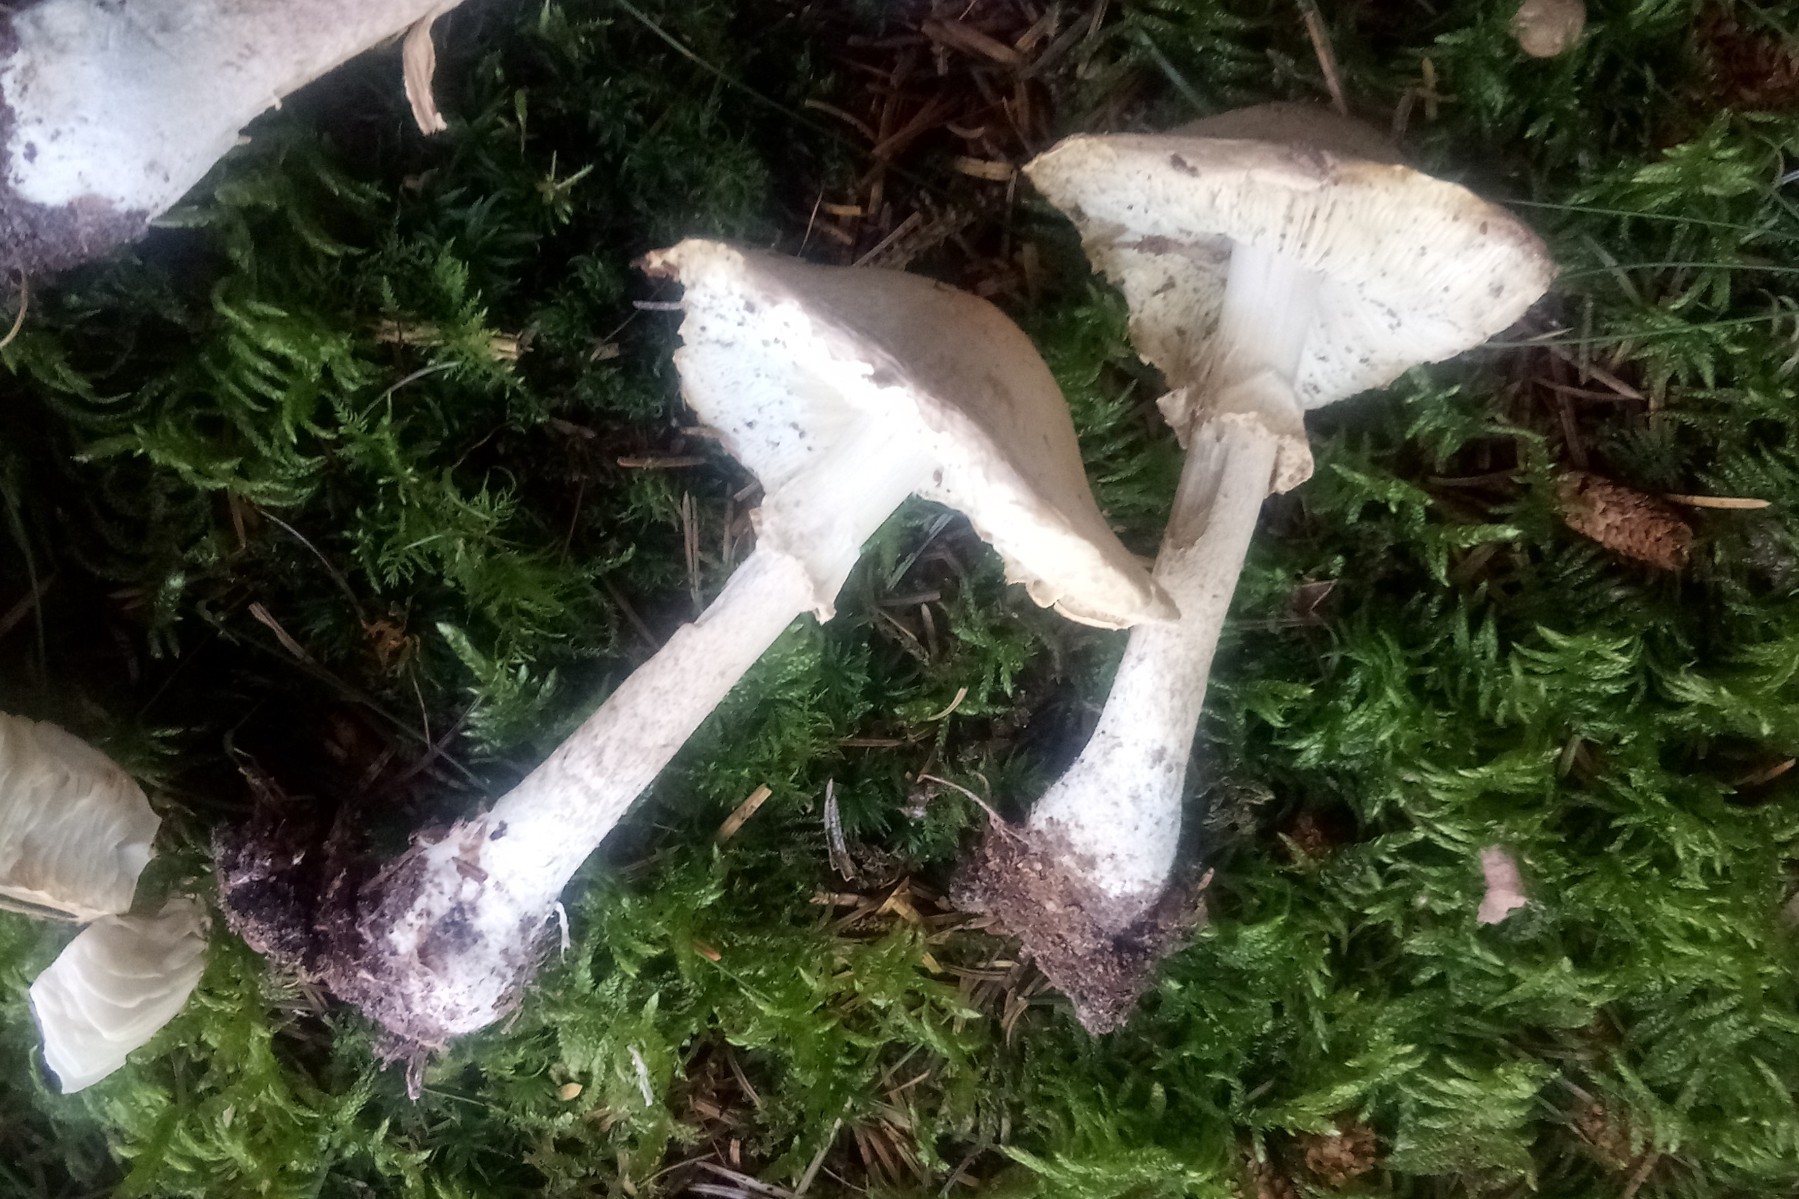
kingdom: Fungi
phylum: Basidiomycota
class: Agaricomycetes
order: Agaricales
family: Amanitaceae
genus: Limacellopsis
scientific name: Limacellopsis guttata
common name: tåre-snekkehat
